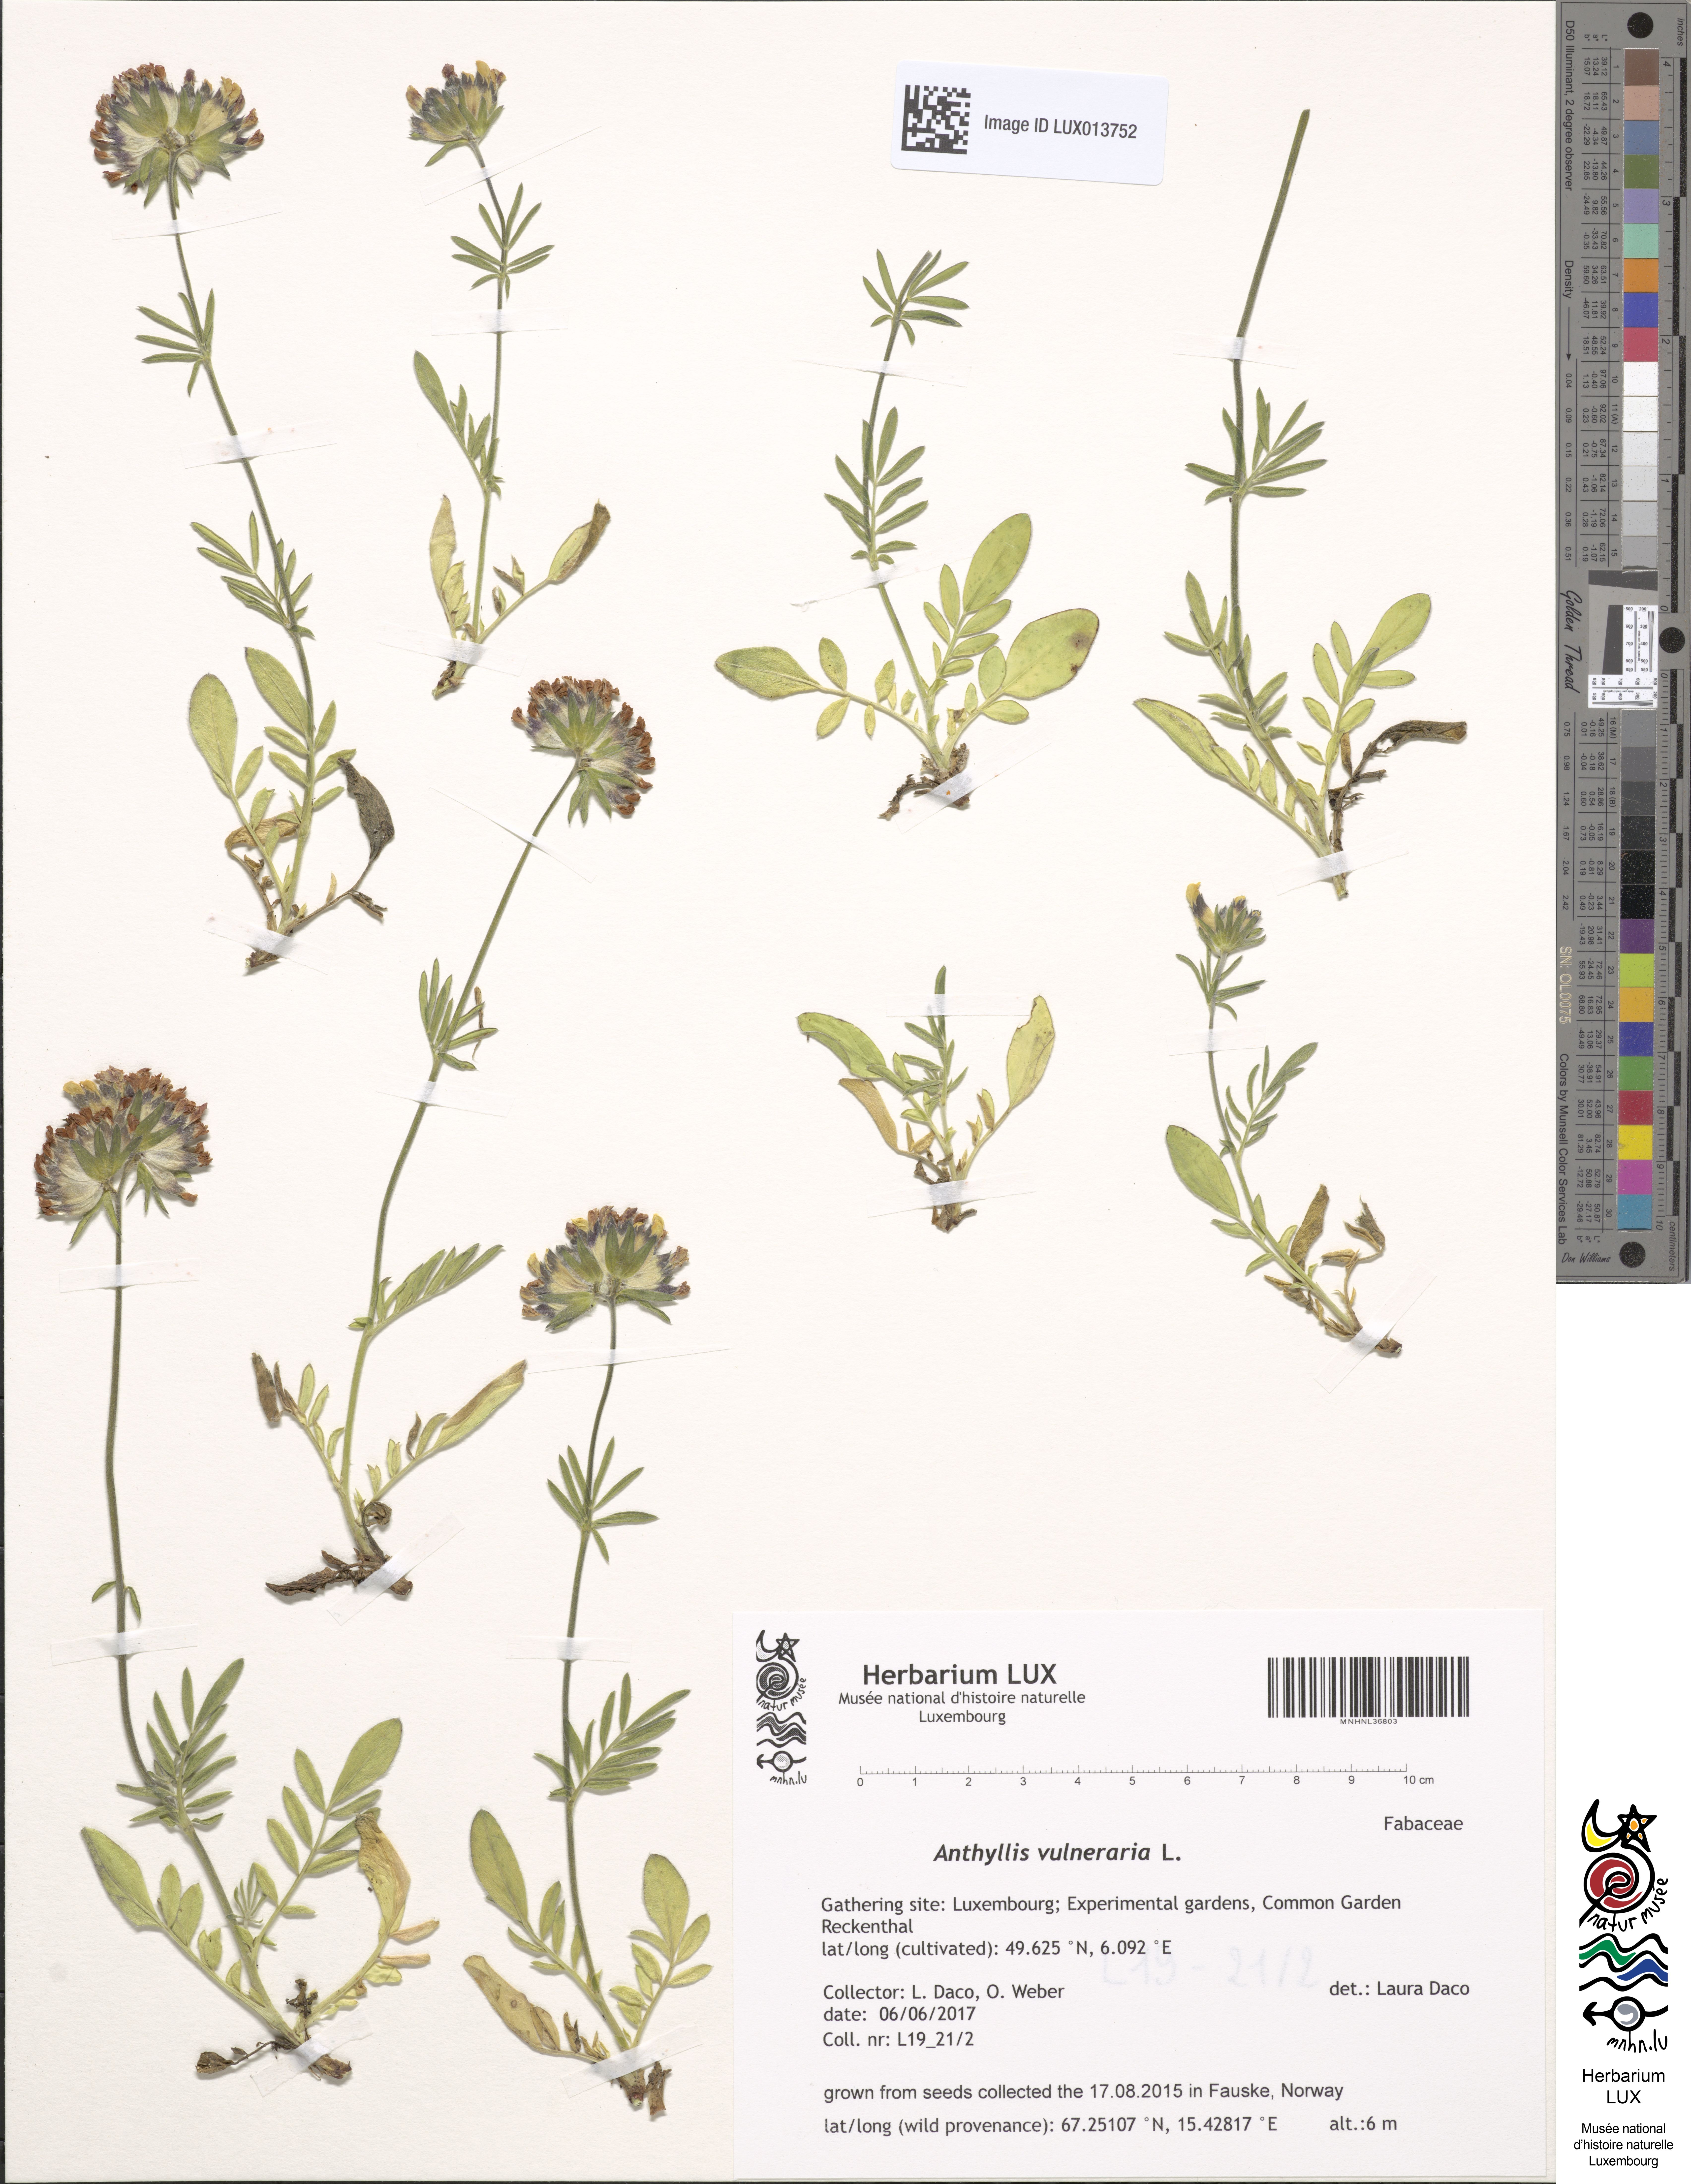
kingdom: Plantae
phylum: Tracheophyta
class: Magnoliopsida
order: Fabales
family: Fabaceae
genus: Anthyllis
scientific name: Anthyllis vulneraria
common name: Kidney vetch
